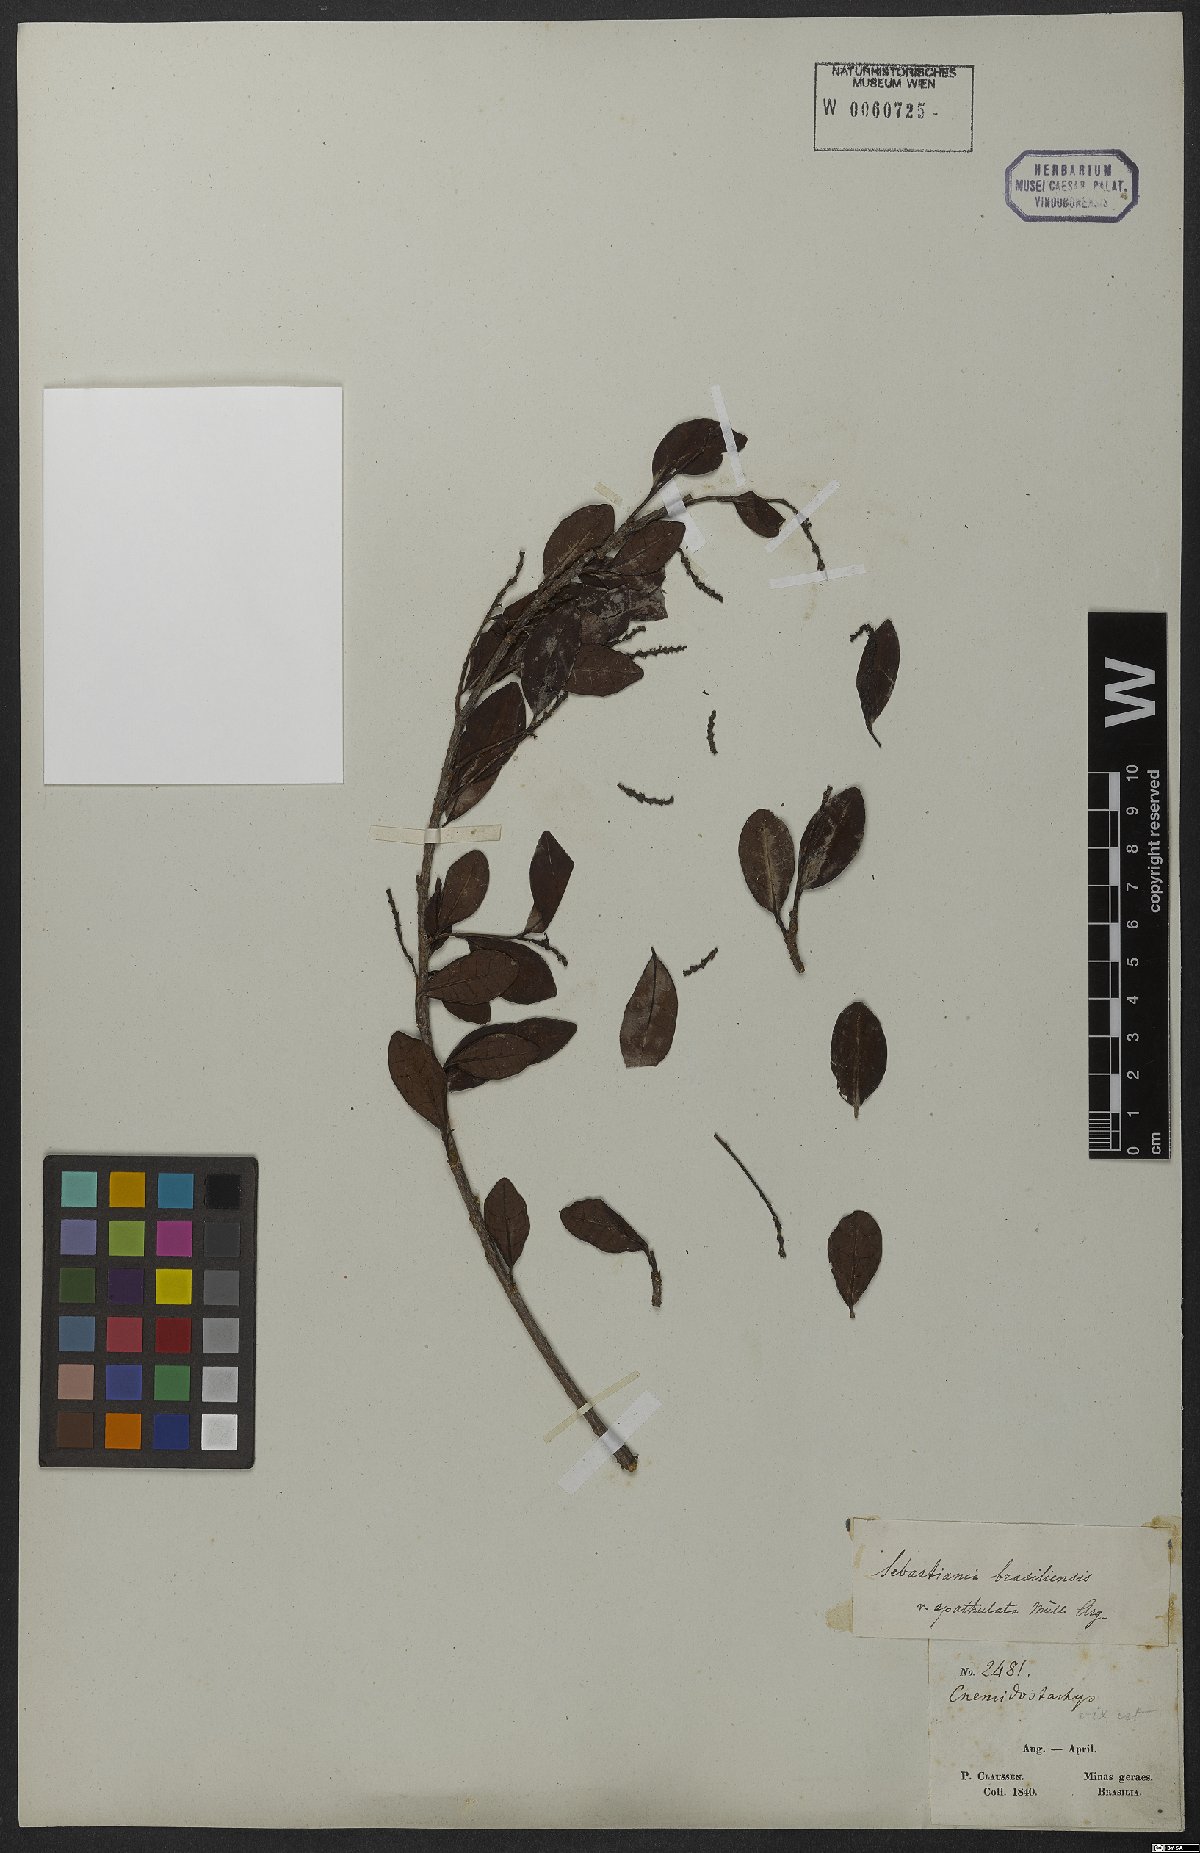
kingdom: Plantae
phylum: Tracheophyta
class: Magnoliopsida
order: Malpighiales
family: Euphorbiaceae
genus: Sebastiania
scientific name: Sebastiania ramosissima
